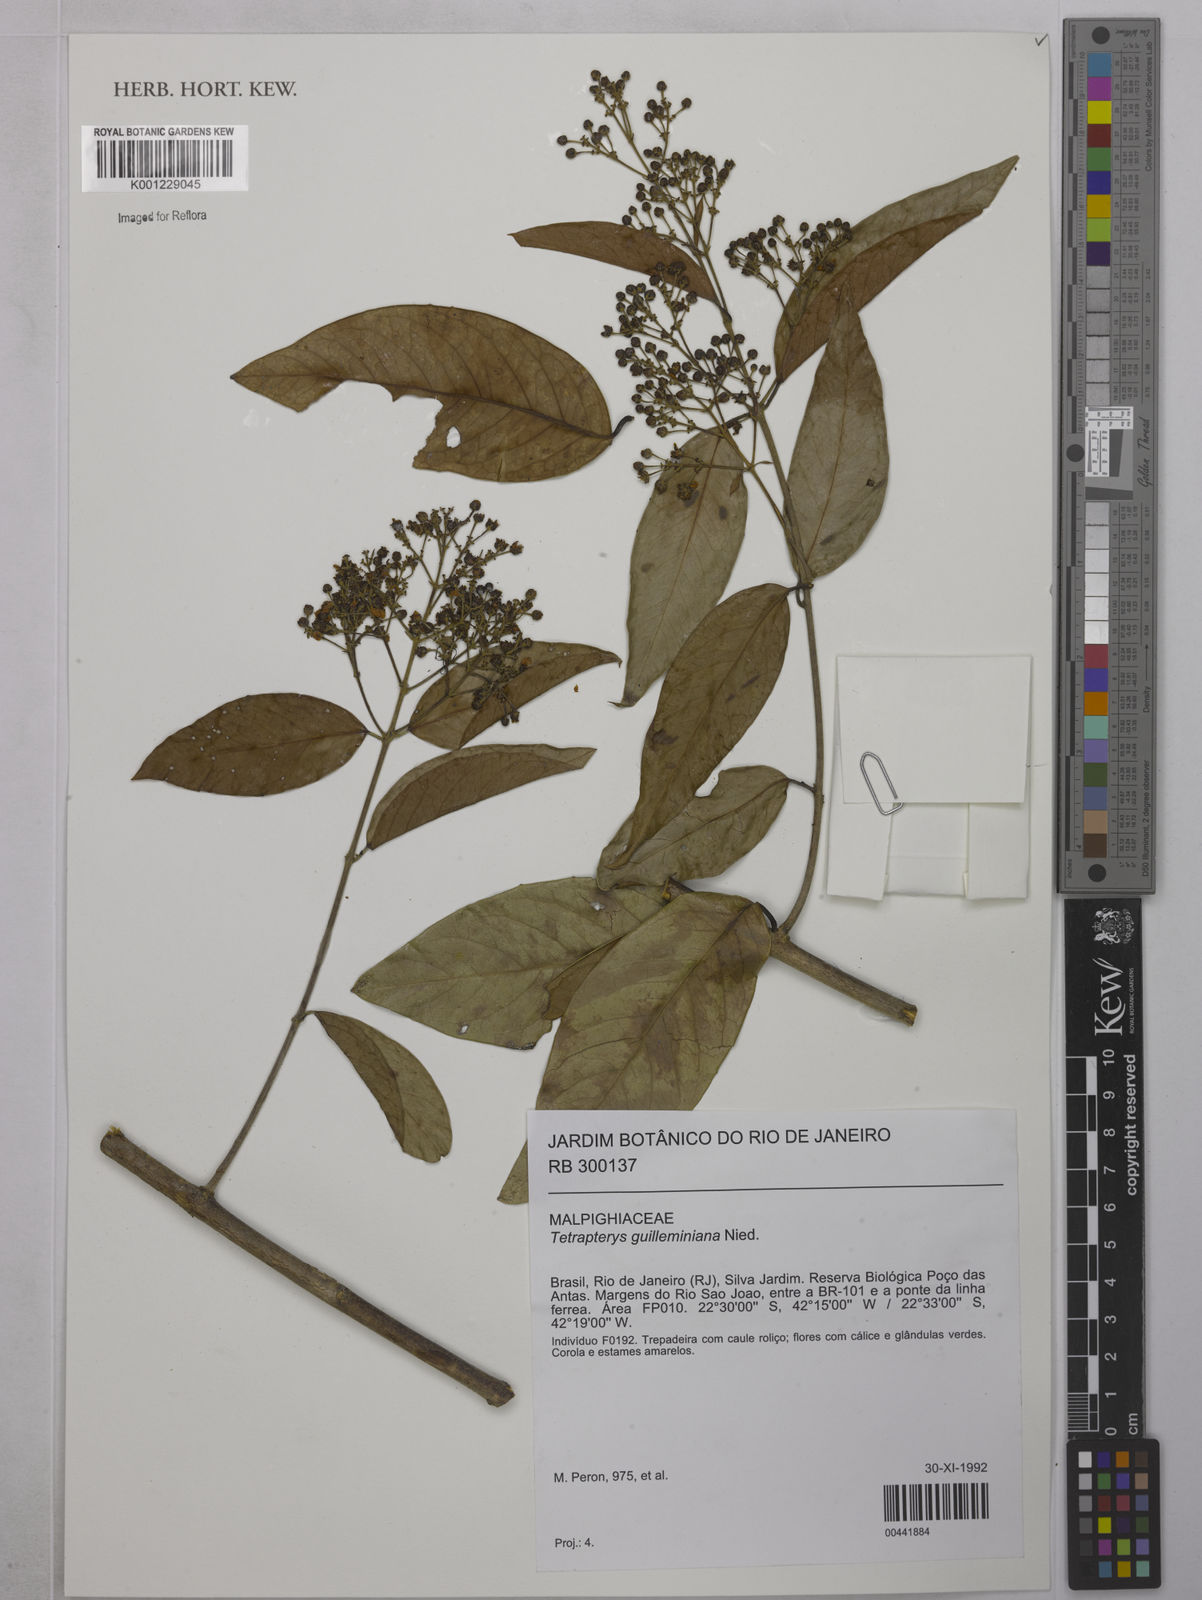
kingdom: Plantae
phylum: Tracheophyta
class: Magnoliopsida
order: Malpighiales
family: Malpighiaceae
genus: Niedenzuella
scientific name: Niedenzuella acutifolia
